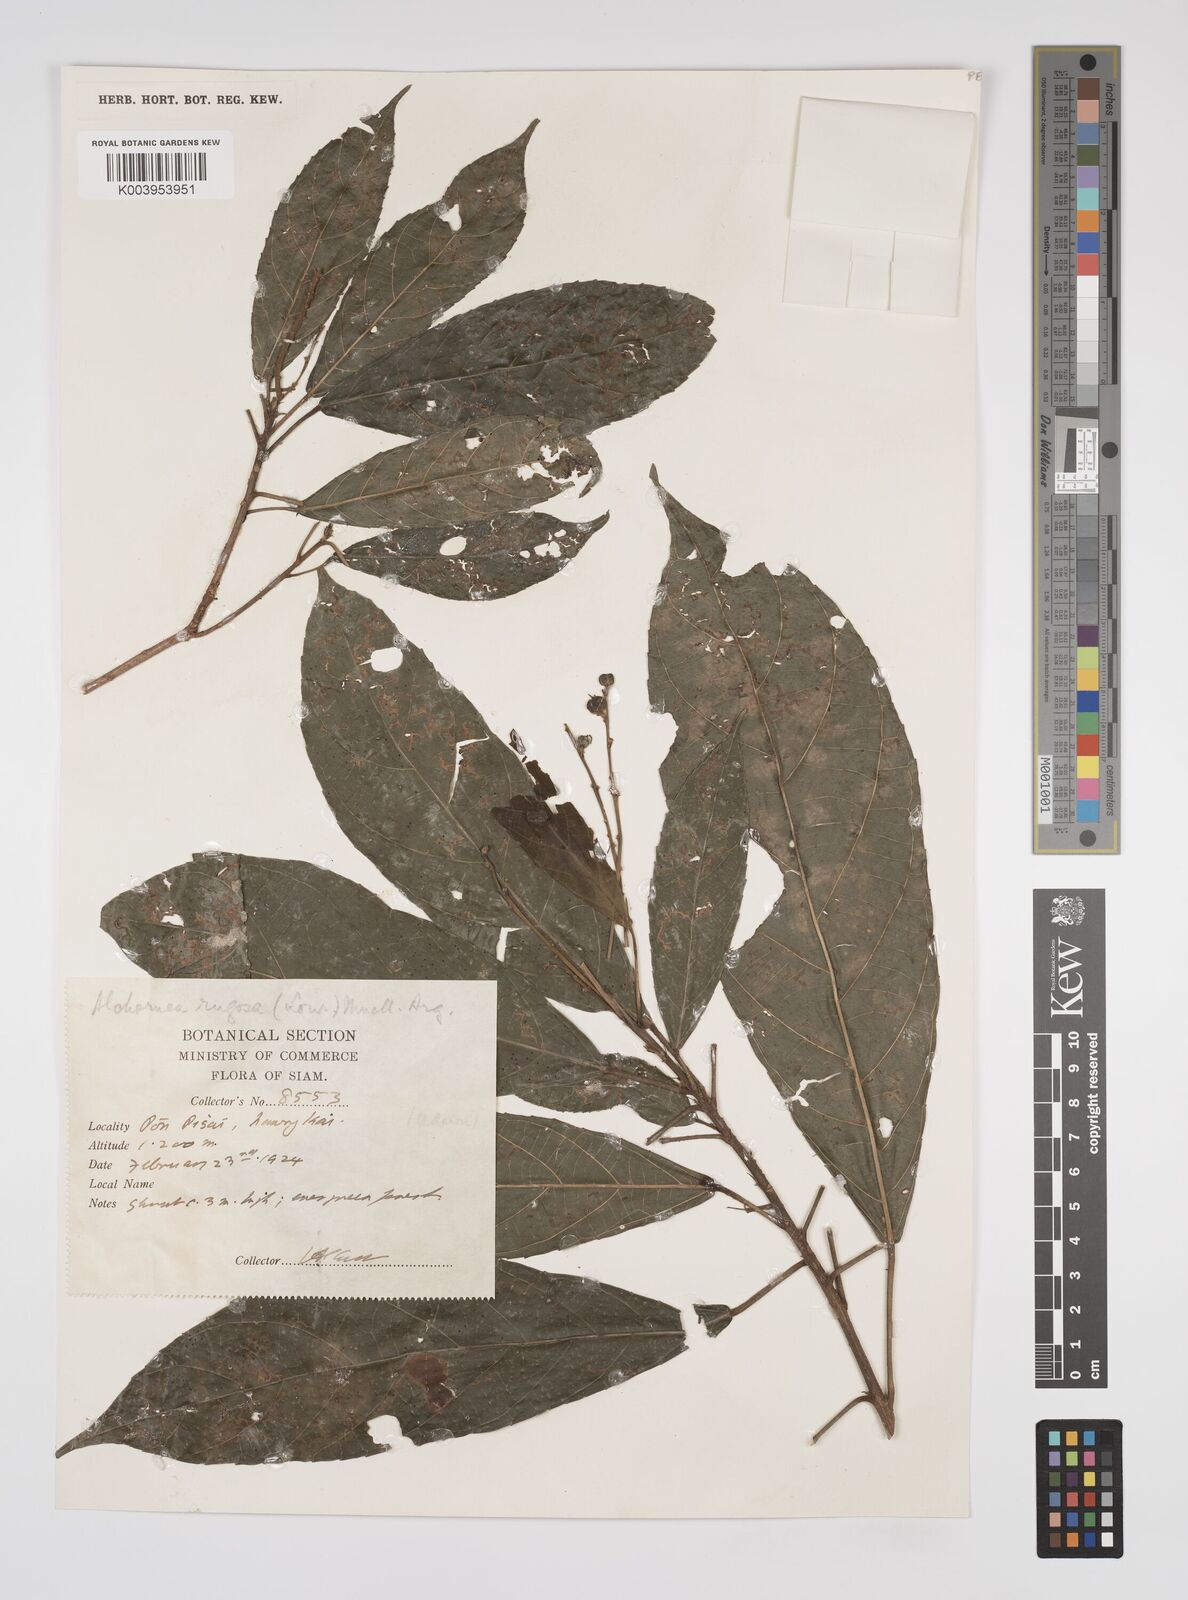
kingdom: Plantae
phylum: Tracheophyta
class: Magnoliopsida
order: Malpighiales
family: Euphorbiaceae
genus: Alchornea
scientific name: Alchornea rugosa
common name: Alchorntree
